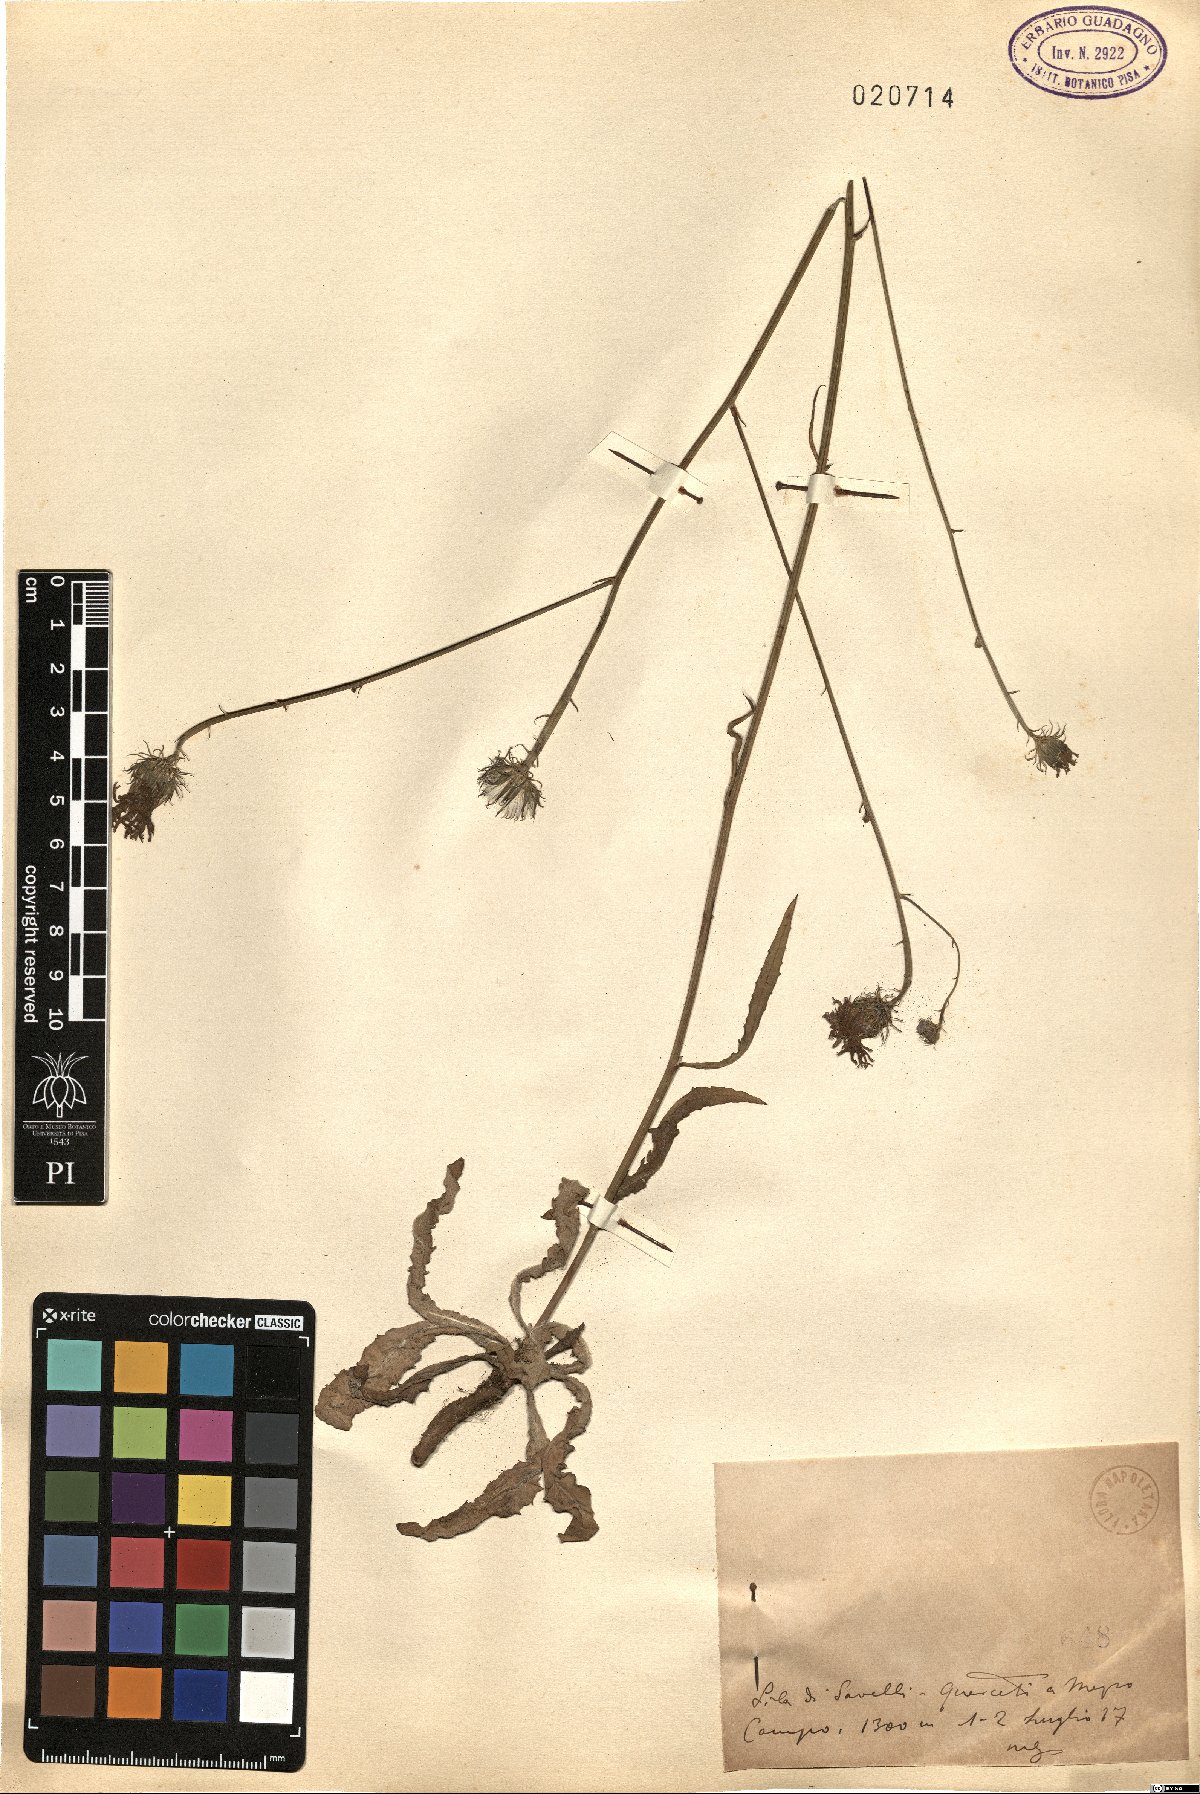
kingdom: Plantae
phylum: Tracheophyta
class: Magnoliopsida
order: Asterales
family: Asteraceae
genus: Tolpis
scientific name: Tolpis
